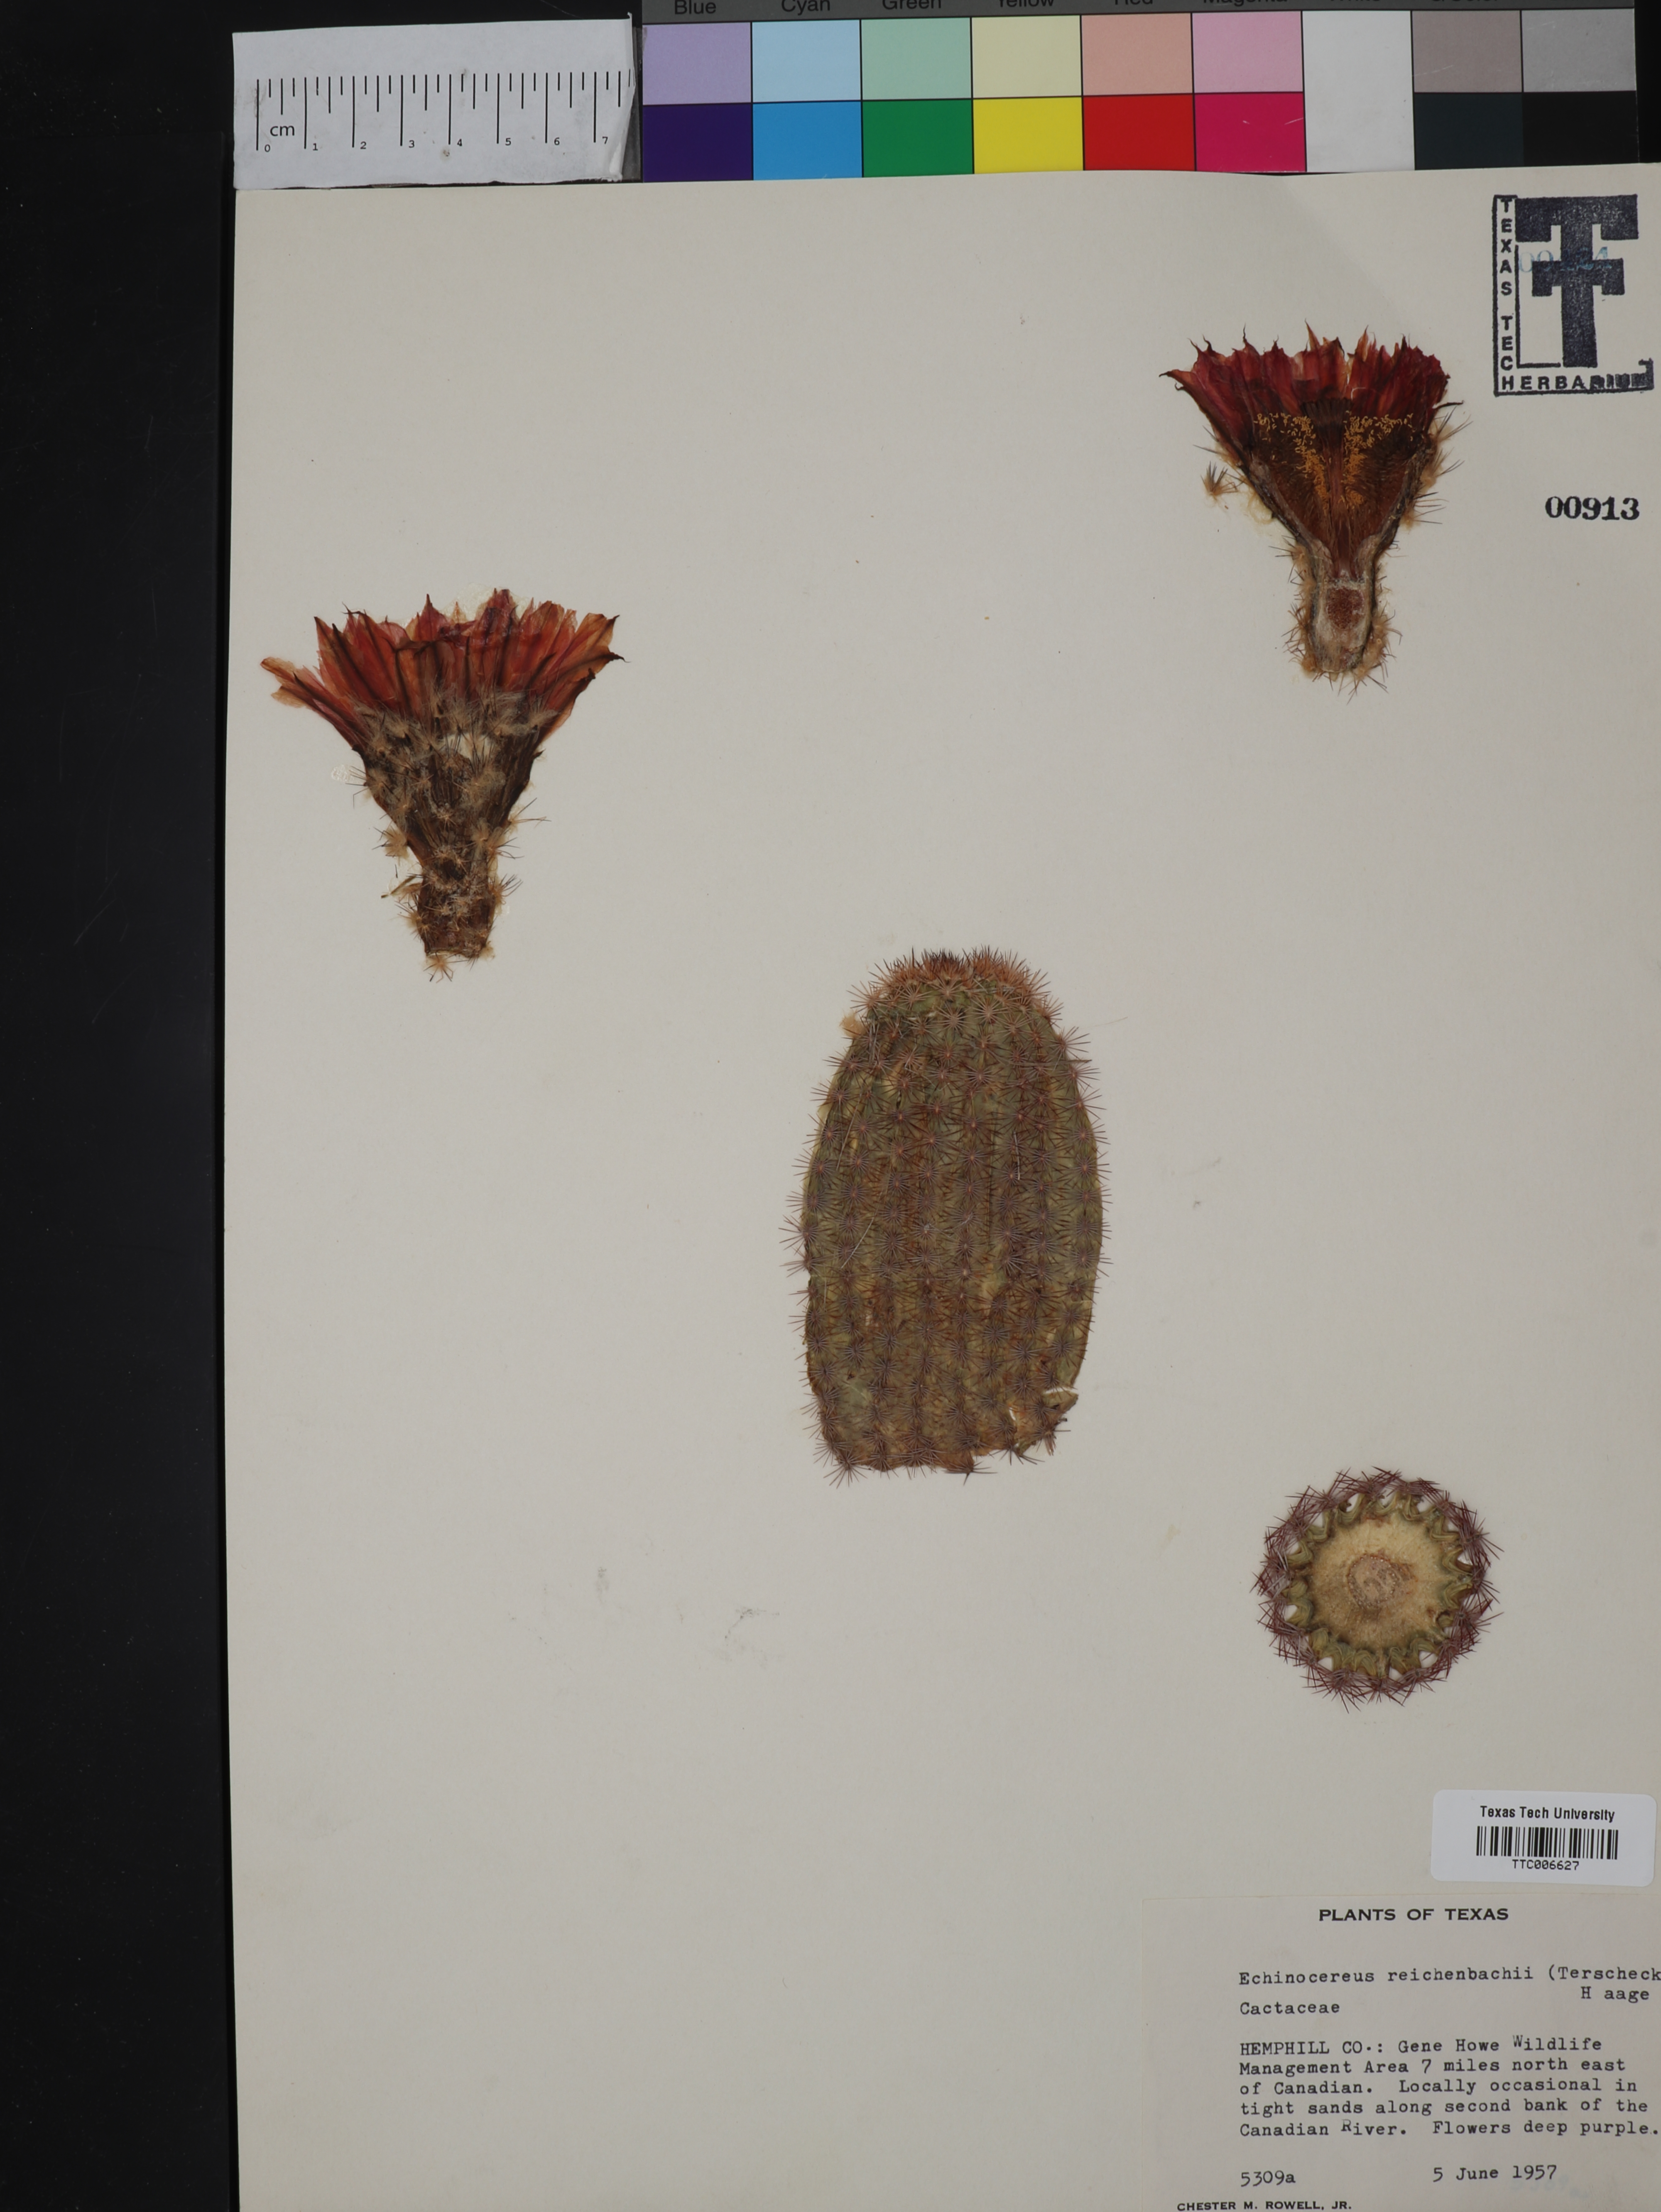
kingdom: Plantae
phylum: Tracheophyta
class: Magnoliopsida
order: Caryophyllales
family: Cactaceae
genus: Echinocereus
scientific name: Echinocereus reichenbachii
